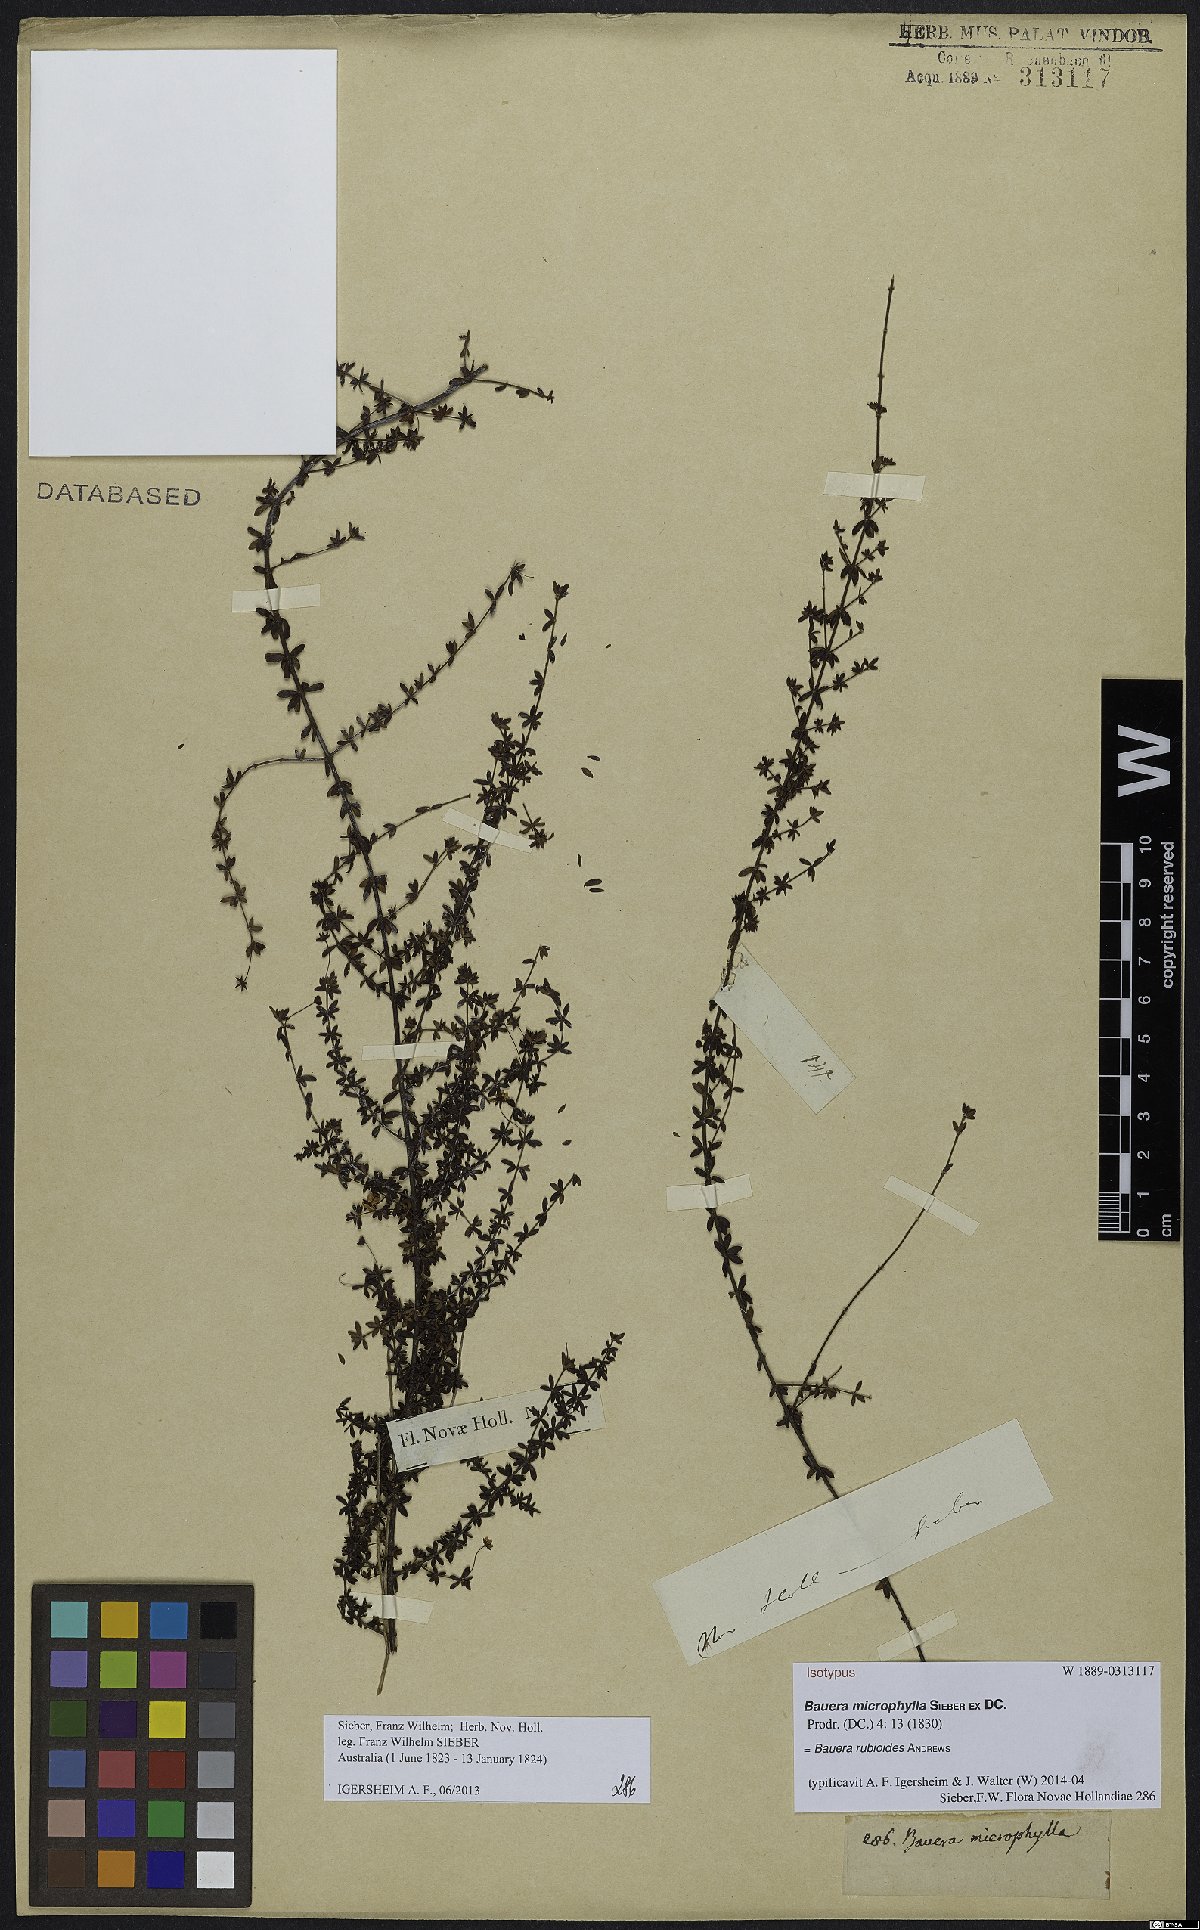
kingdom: Plantae
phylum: Tracheophyta
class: Magnoliopsida
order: Oxalidales
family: Cunoniaceae
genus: Bauera
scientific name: Bauera rubioides
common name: River-rose
